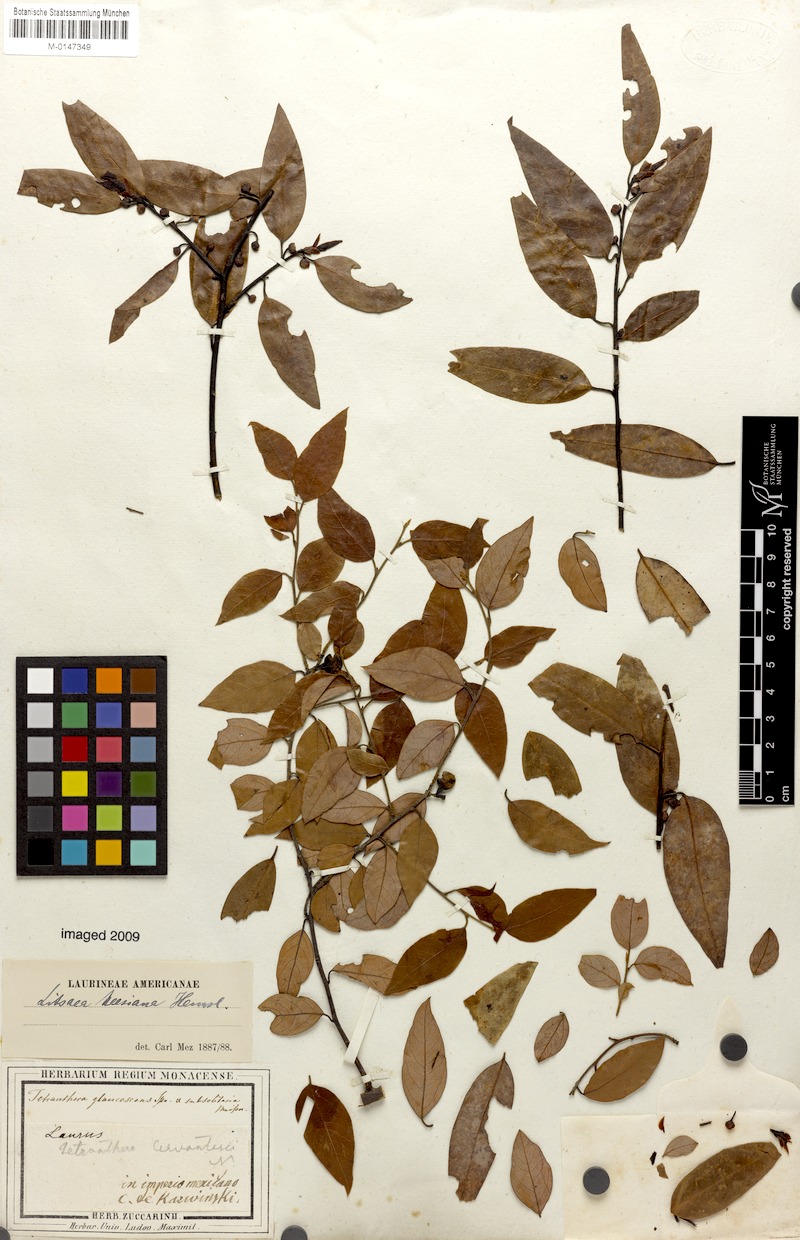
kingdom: Plantae
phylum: Tracheophyta
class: Magnoliopsida
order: Laurales
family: Lauraceae
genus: Licaria
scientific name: Licaria triandra
